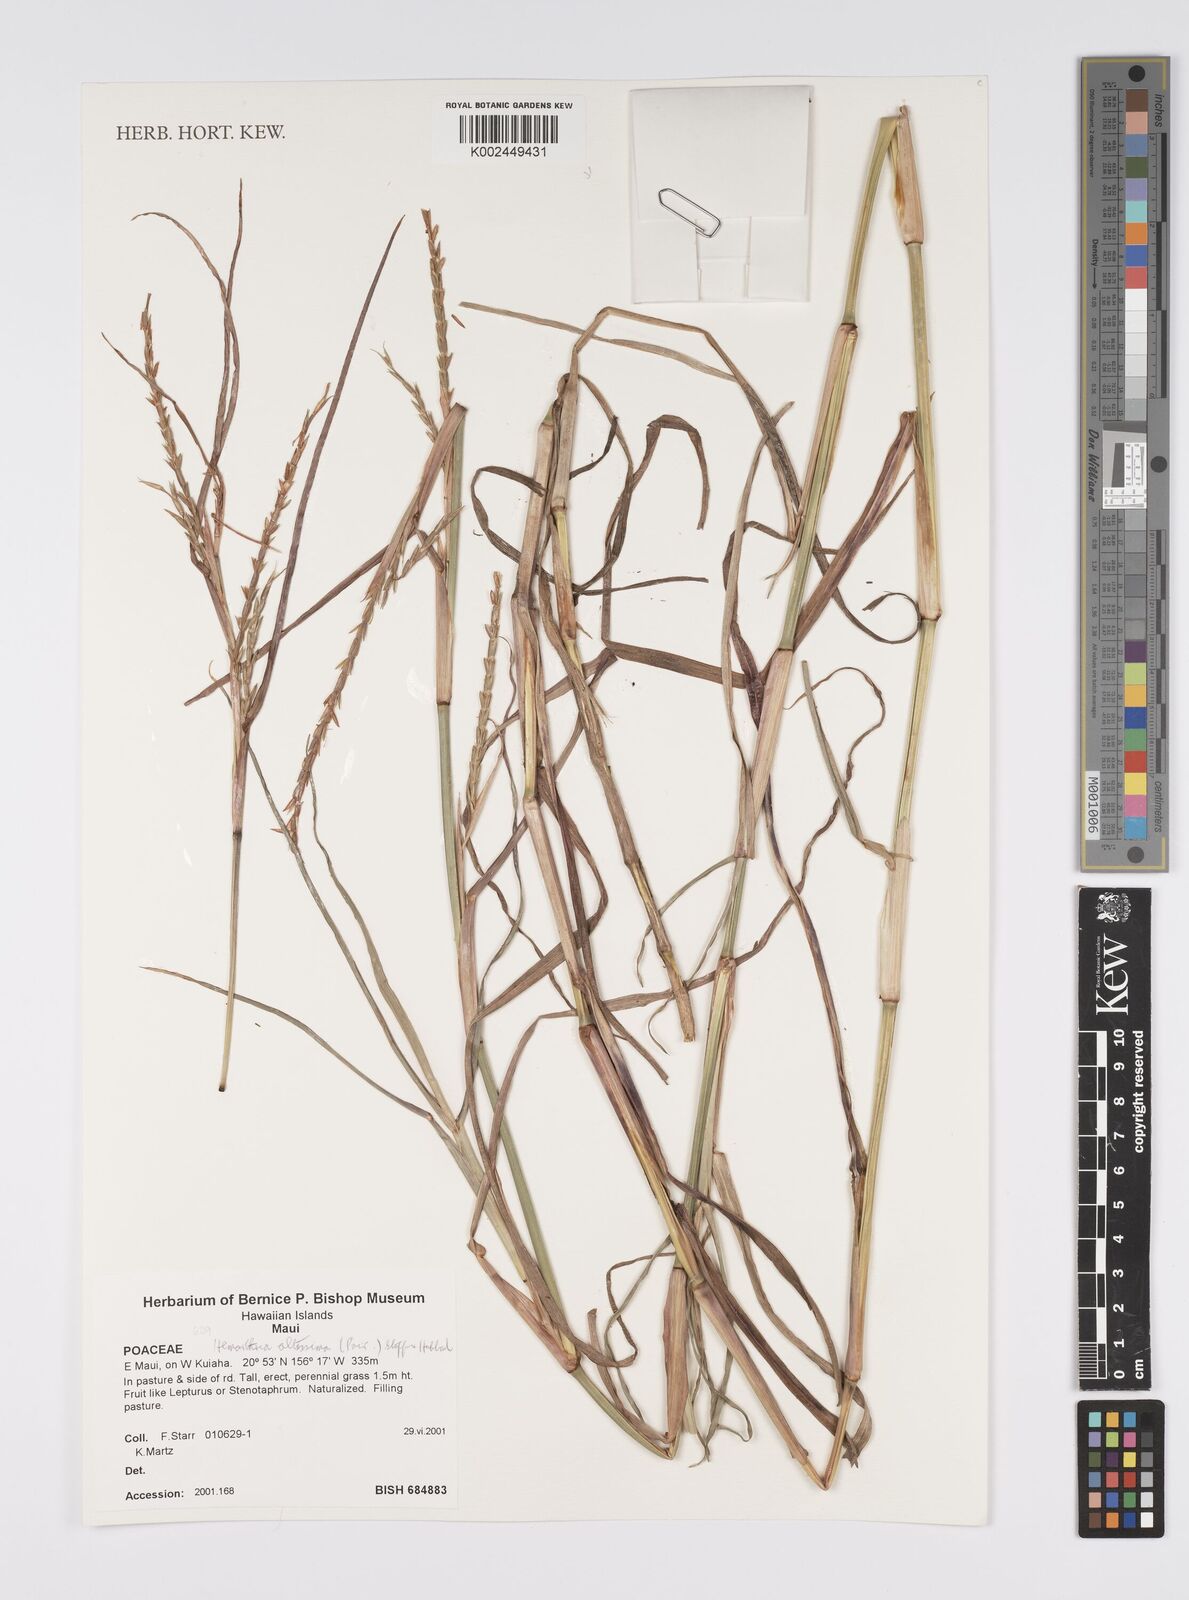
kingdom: Plantae
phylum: Tracheophyta
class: Liliopsida
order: Poales
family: Poaceae
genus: Hemarthria
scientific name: Hemarthria altissima
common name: African jointgrass
